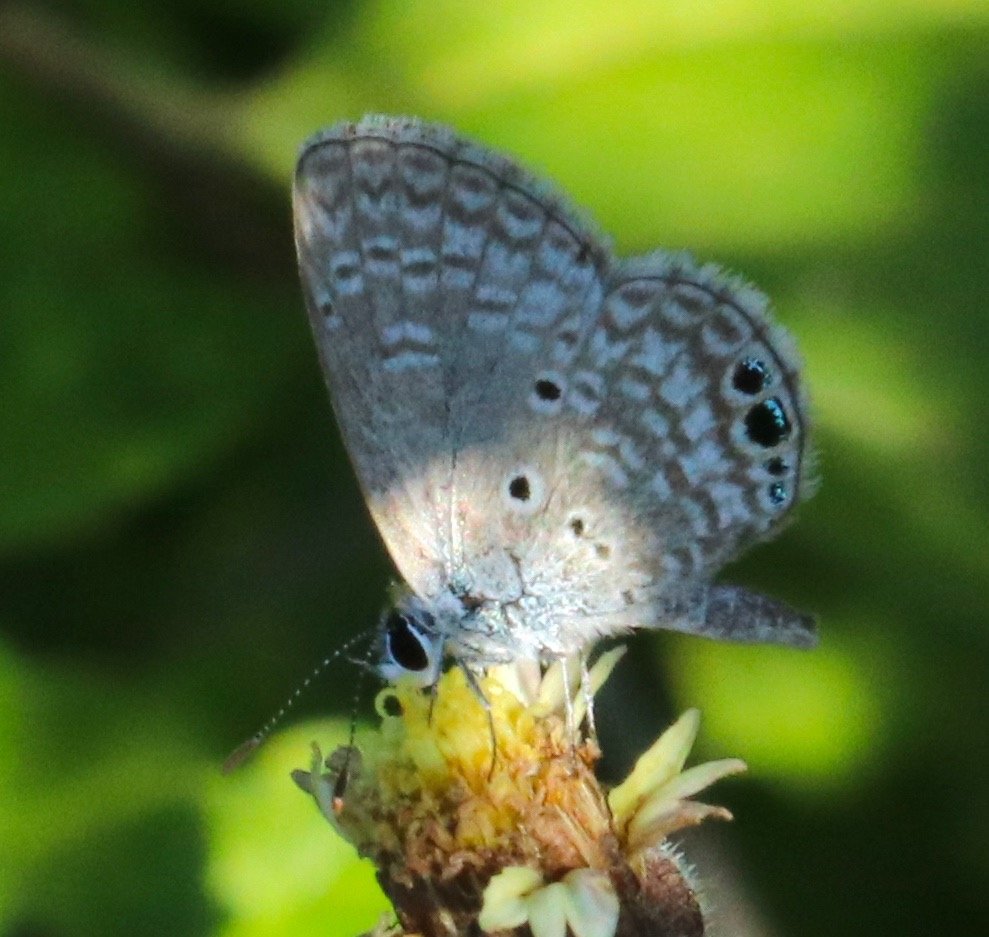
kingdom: Animalia
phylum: Arthropoda
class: Insecta
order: Lepidoptera
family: Lycaenidae
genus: Hemiargus
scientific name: Hemiargus ceraunus
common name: Ceraunus Blue
